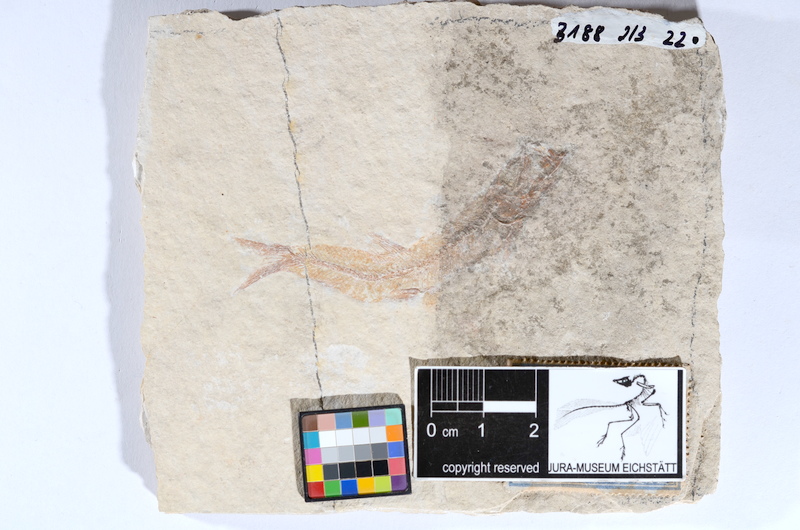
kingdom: Animalia
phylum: Chordata
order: Salmoniformes
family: Orthogonikleithridae
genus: Leptolepides
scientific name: Leptolepides sprattiformis
